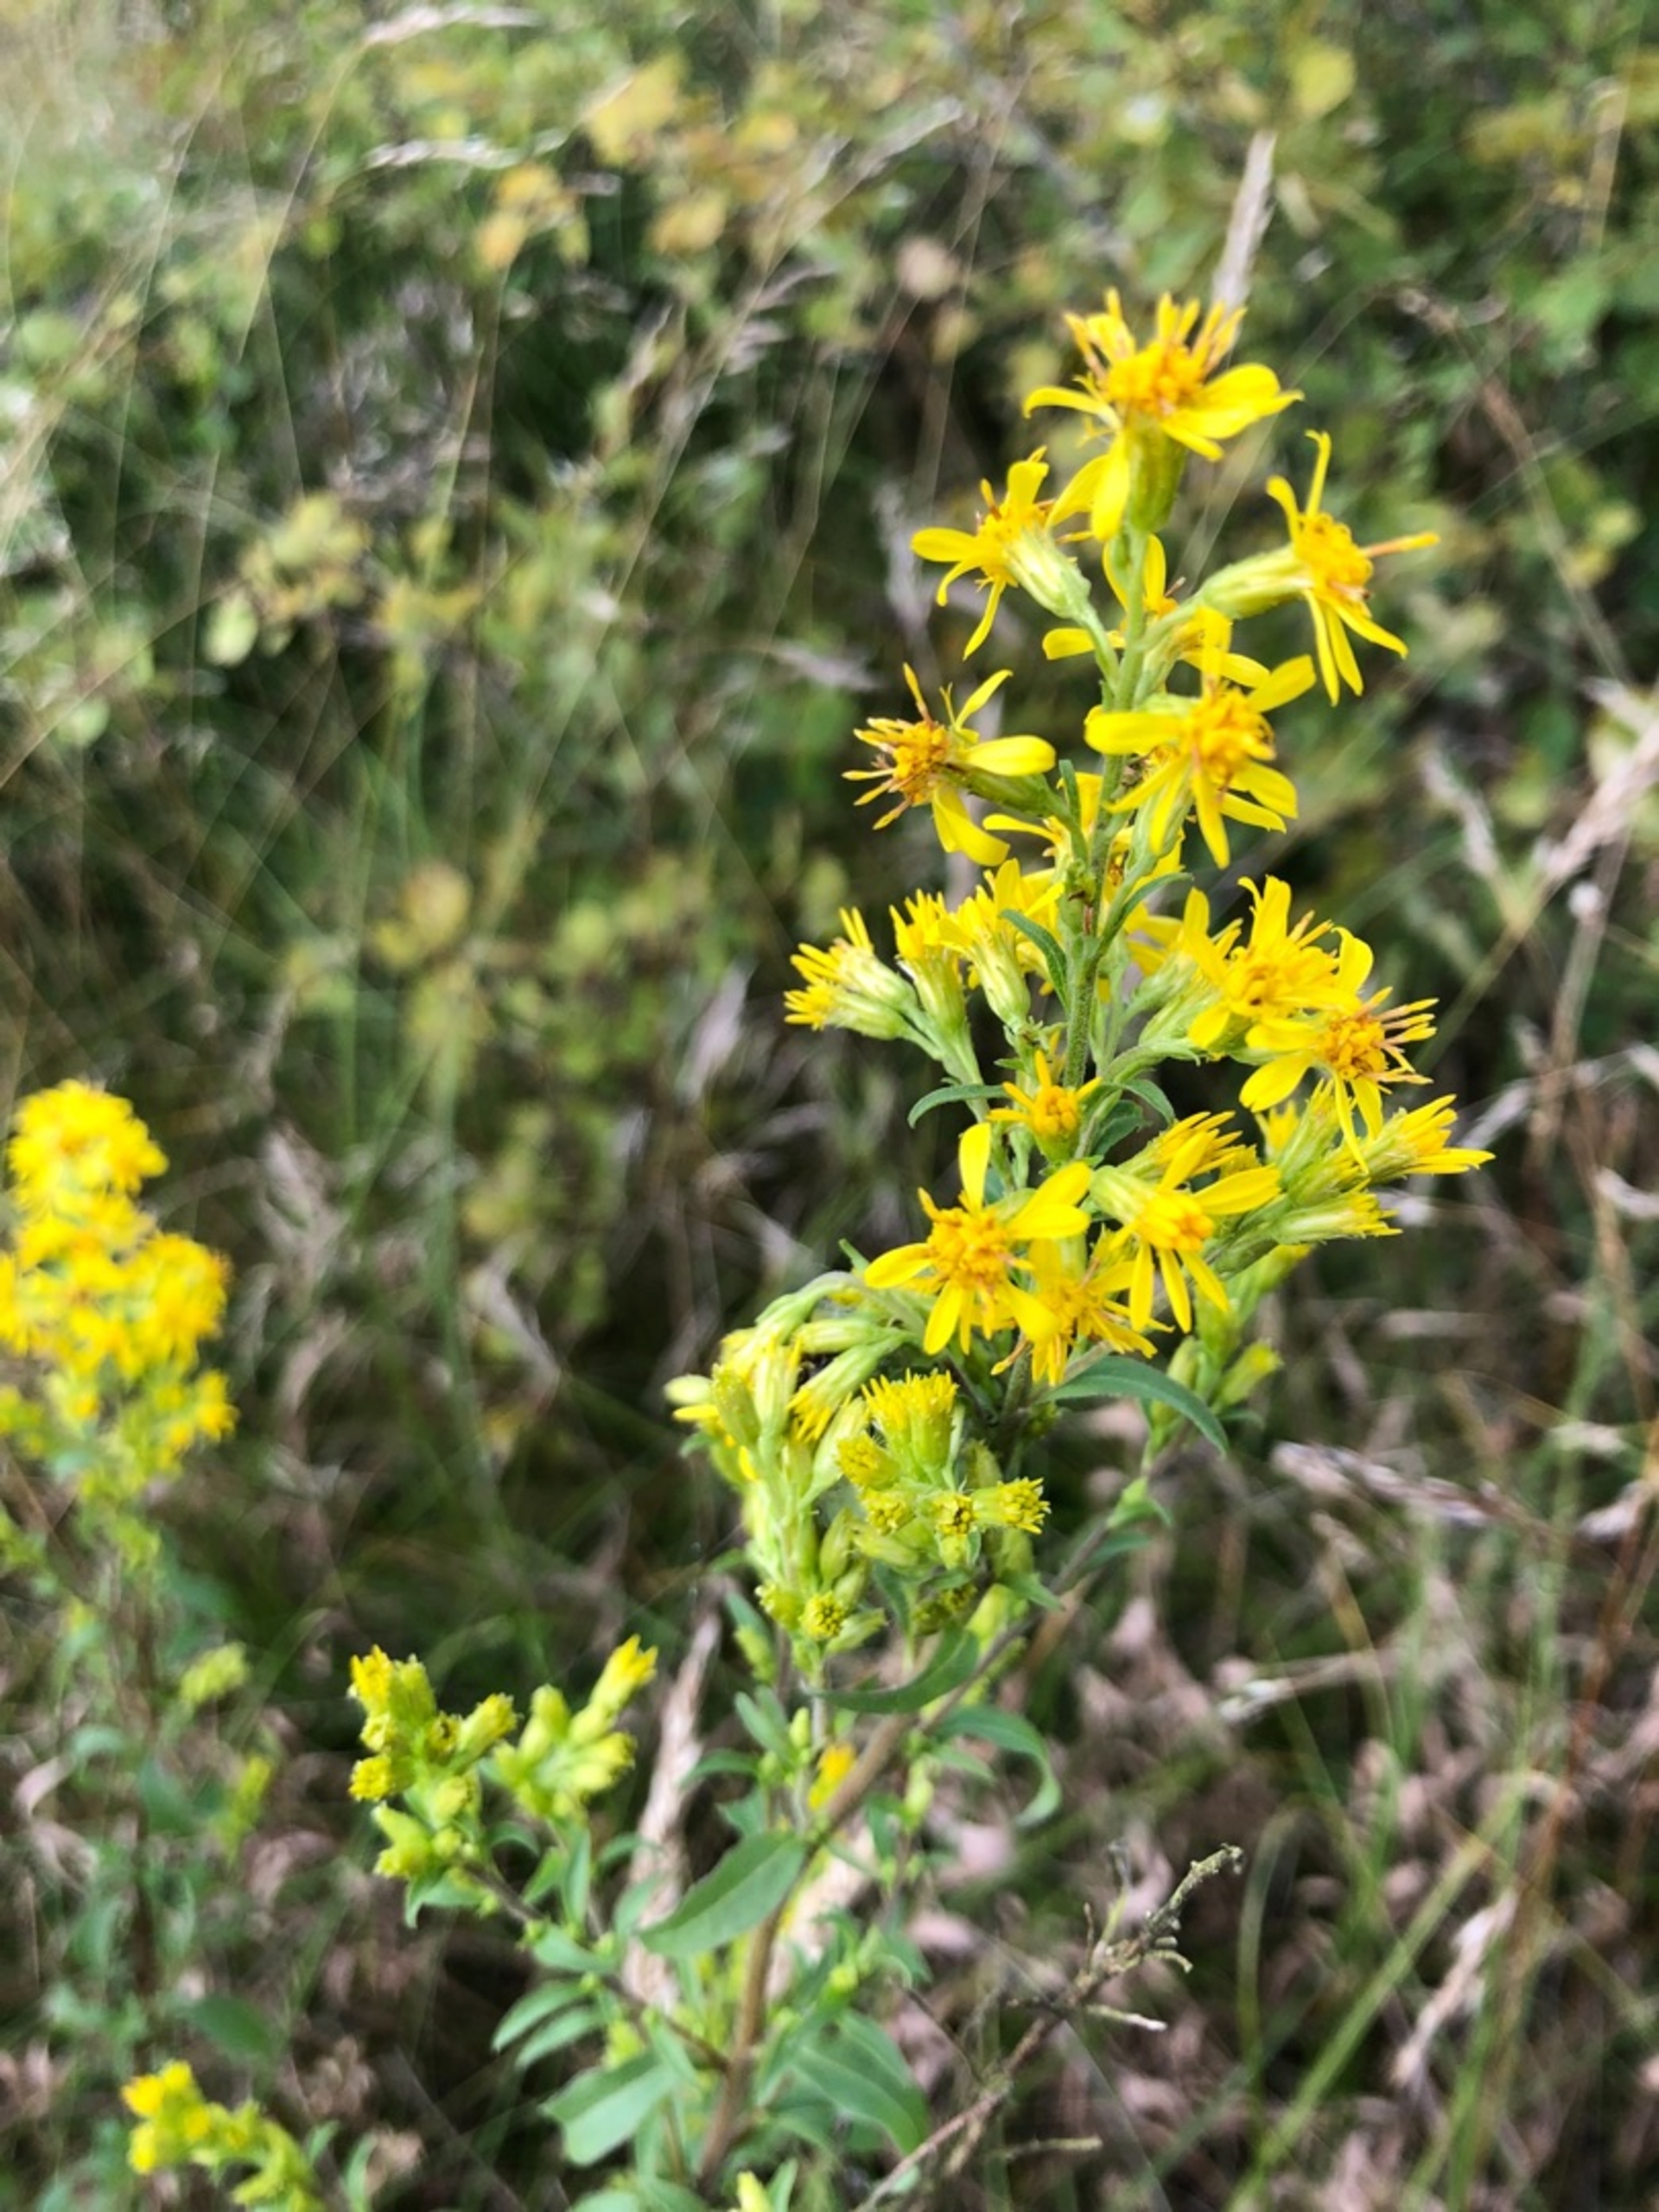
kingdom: Plantae
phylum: Tracheophyta
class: Magnoliopsida
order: Asterales
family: Asteraceae
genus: Solidago
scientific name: Solidago virgaurea
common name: Almindelig gyldenris
